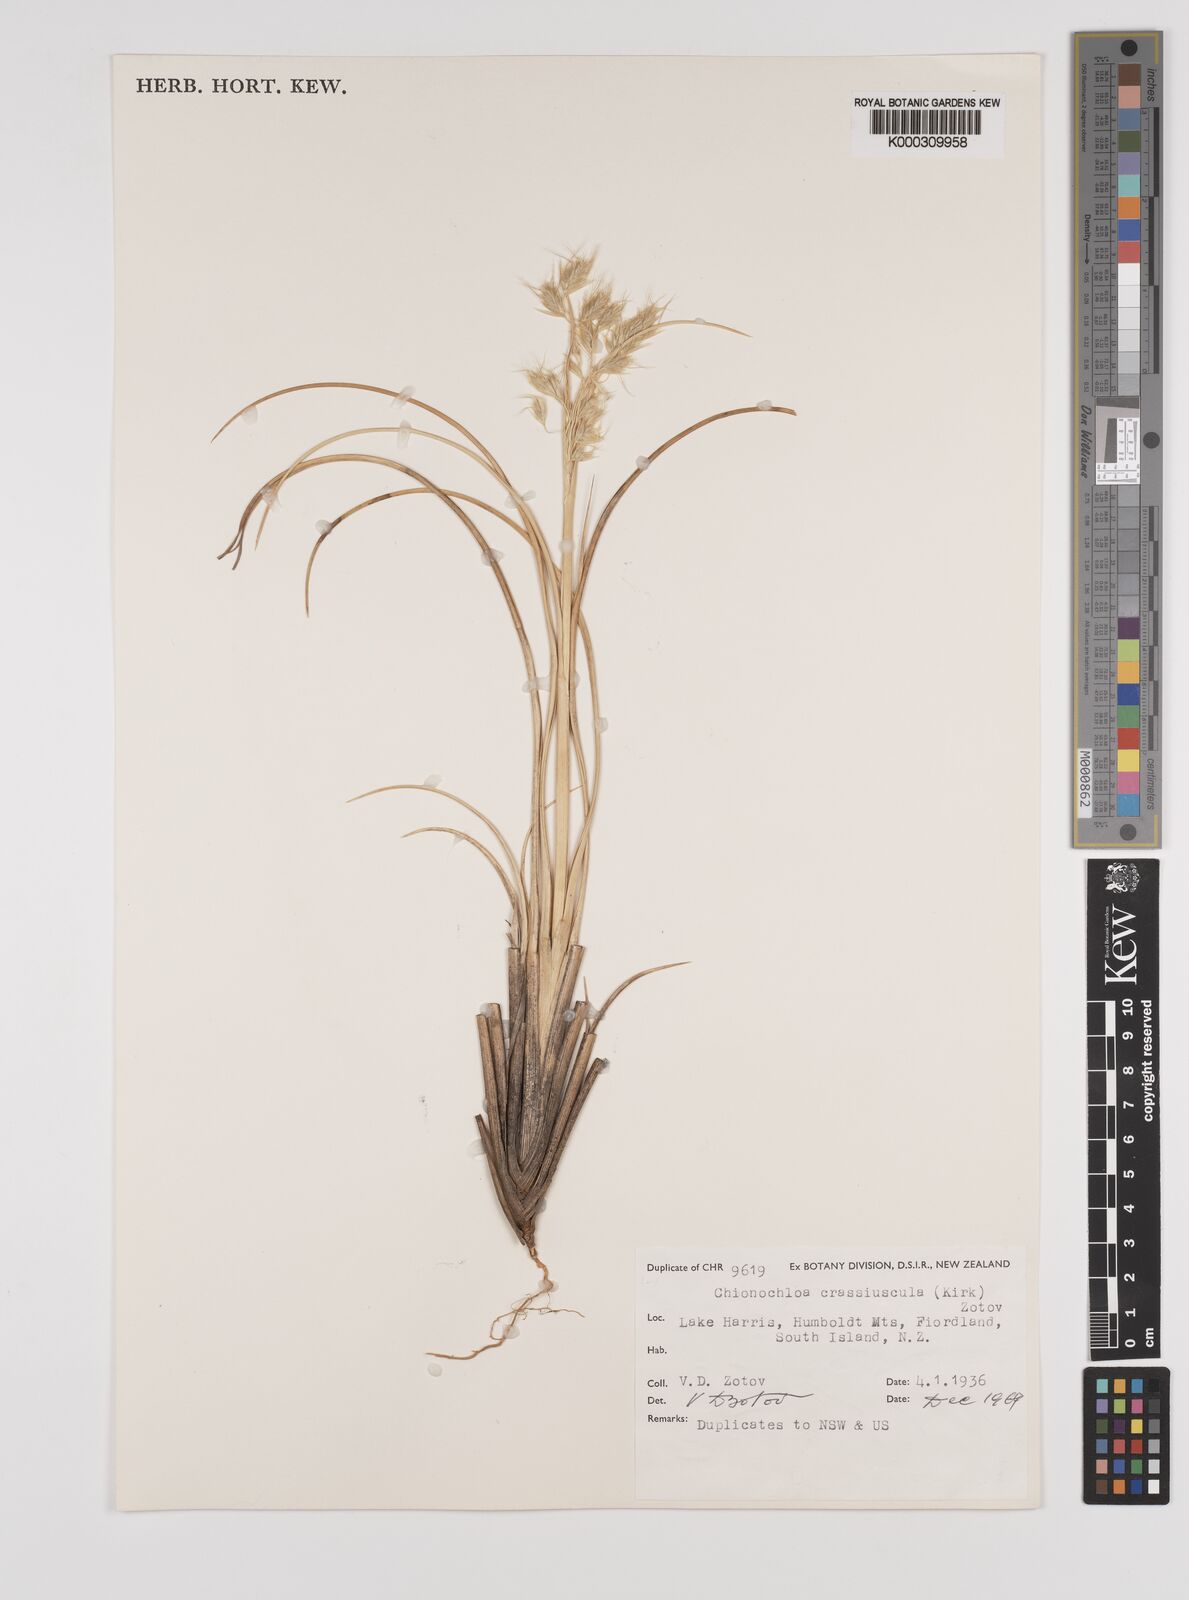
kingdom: Plantae
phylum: Tracheophyta
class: Liliopsida
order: Poales
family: Poaceae
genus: Chionochloa
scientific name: Chionochloa crassiuscula
